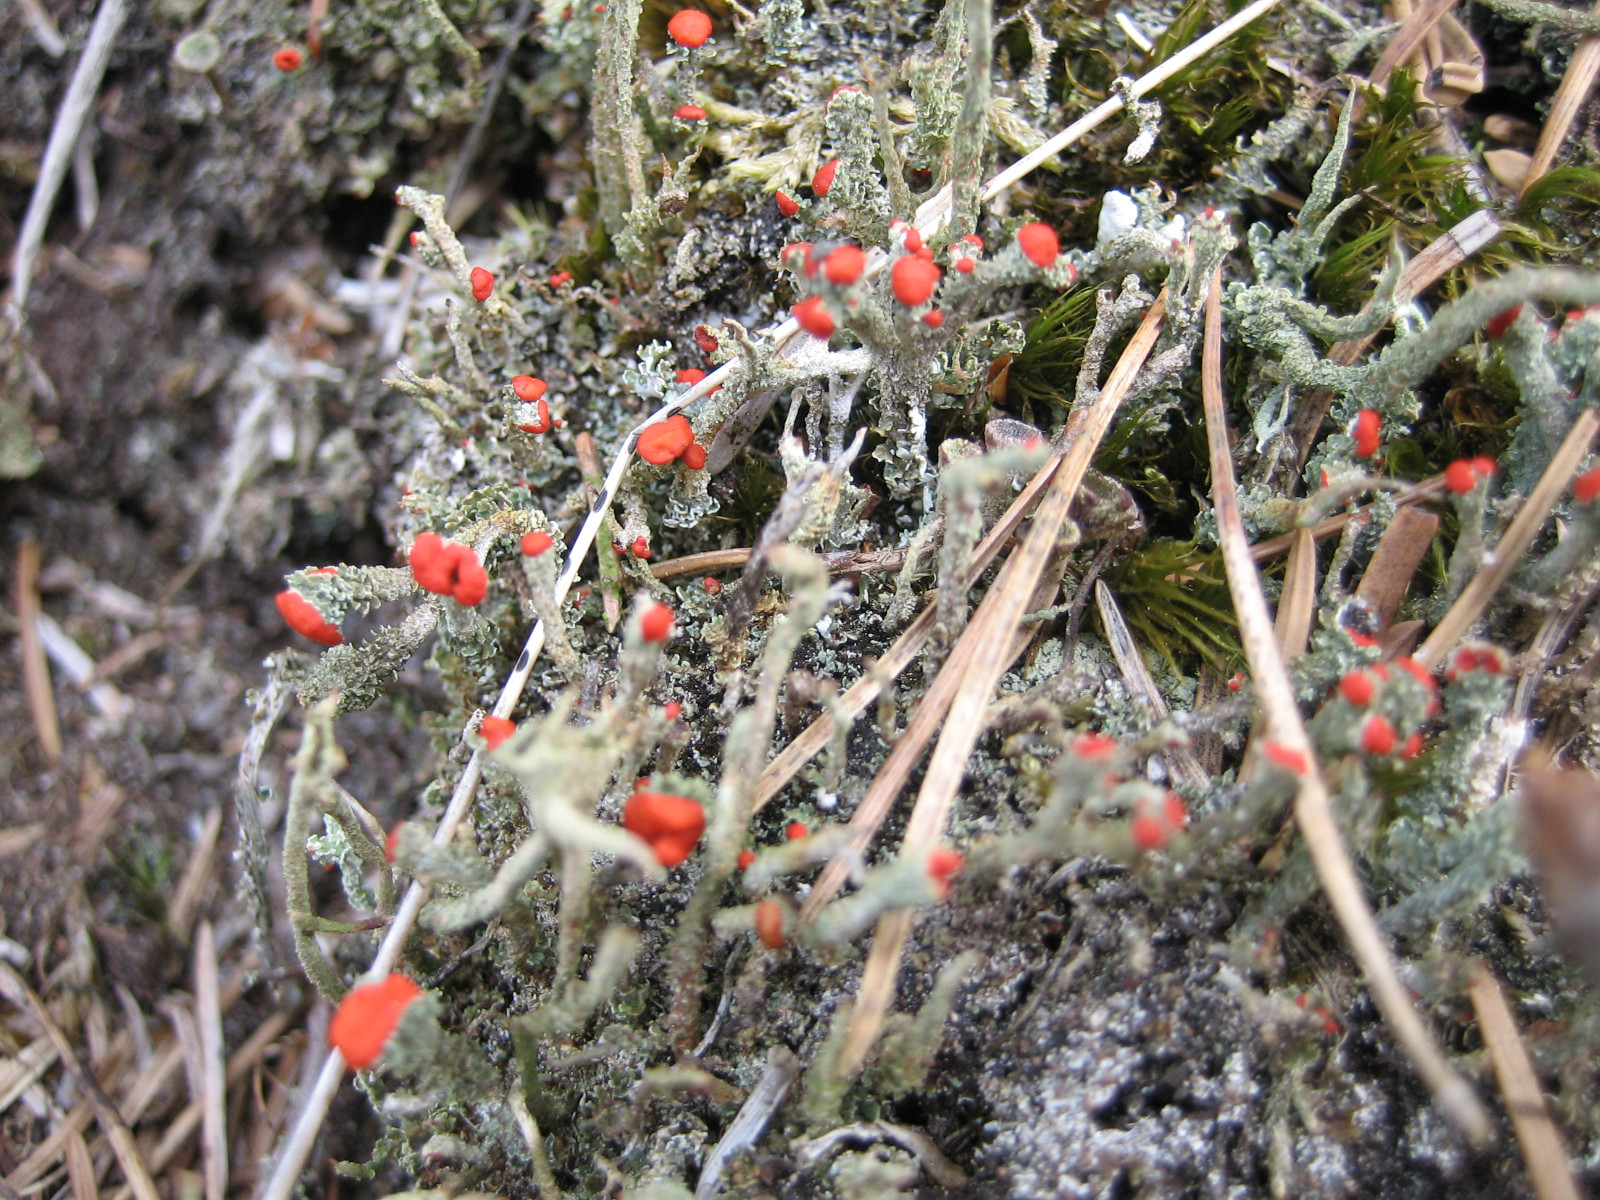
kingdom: Fungi
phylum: Ascomycota
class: Lecanoromycetes
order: Lecanorales
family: Cladoniaceae
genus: Cladonia
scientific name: Cladonia floerkeana
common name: lakrød bægerlav
